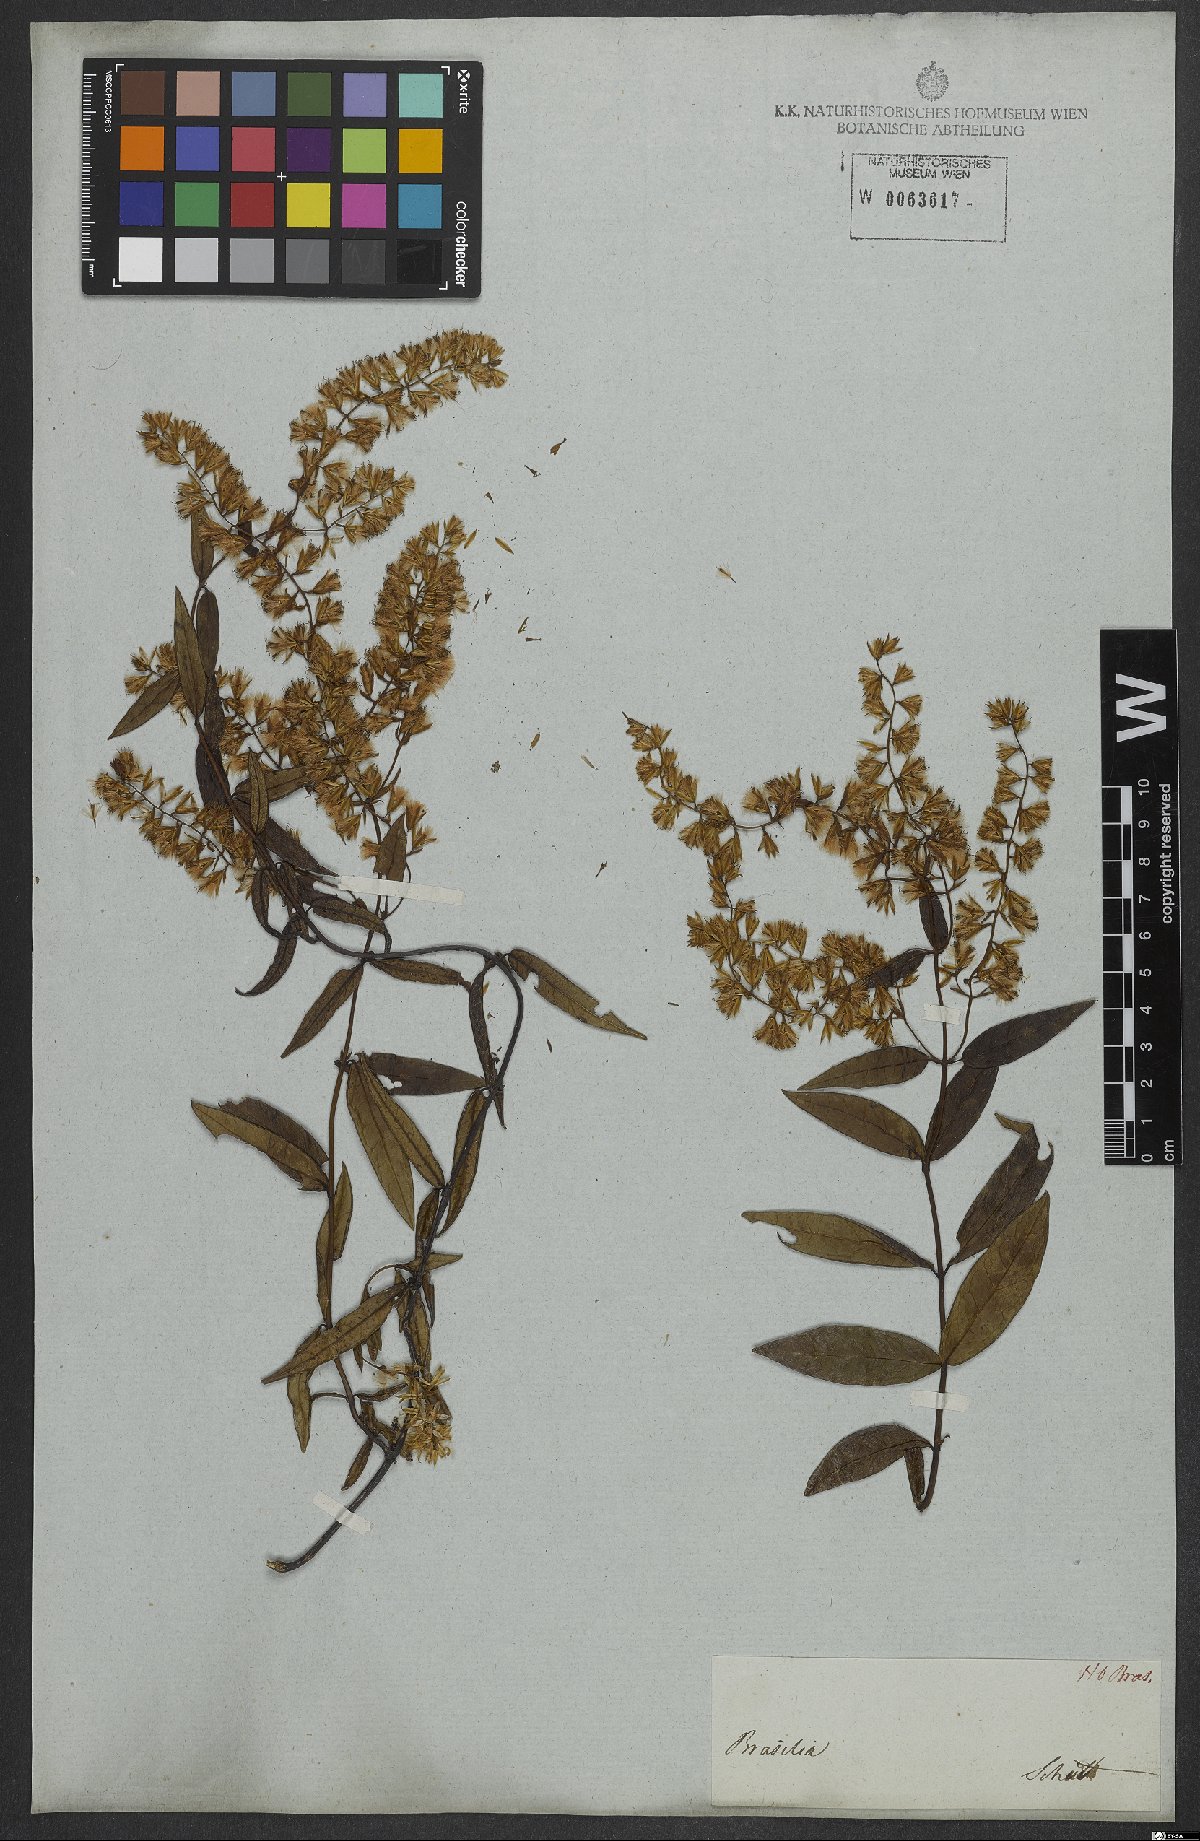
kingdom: Plantae
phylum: Tracheophyta
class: Magnoliopsida
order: Asterales
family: Asteraceae
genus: Mikania
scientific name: Mikania ligustrifolia
